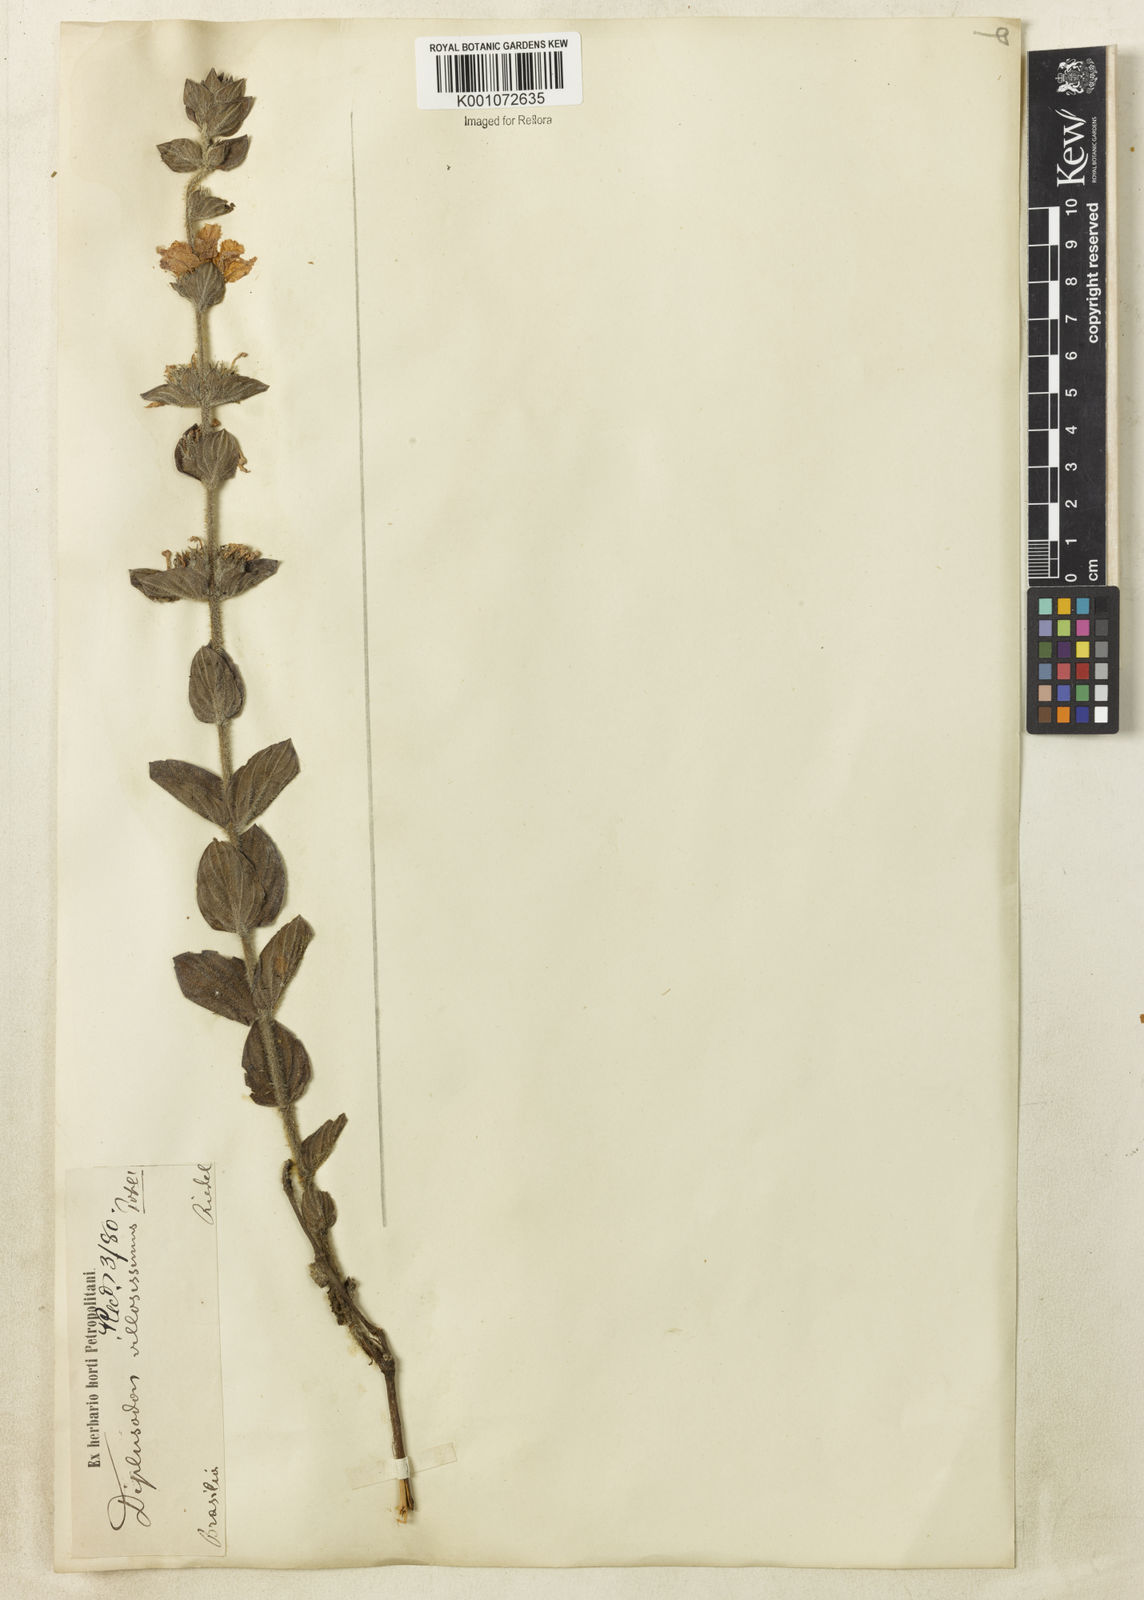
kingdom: Plantae
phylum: Tracheophyta
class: Magnoliopsida
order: Myrtales
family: Lythraceae
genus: Diplusodon
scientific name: Diplusodon villosissimus
